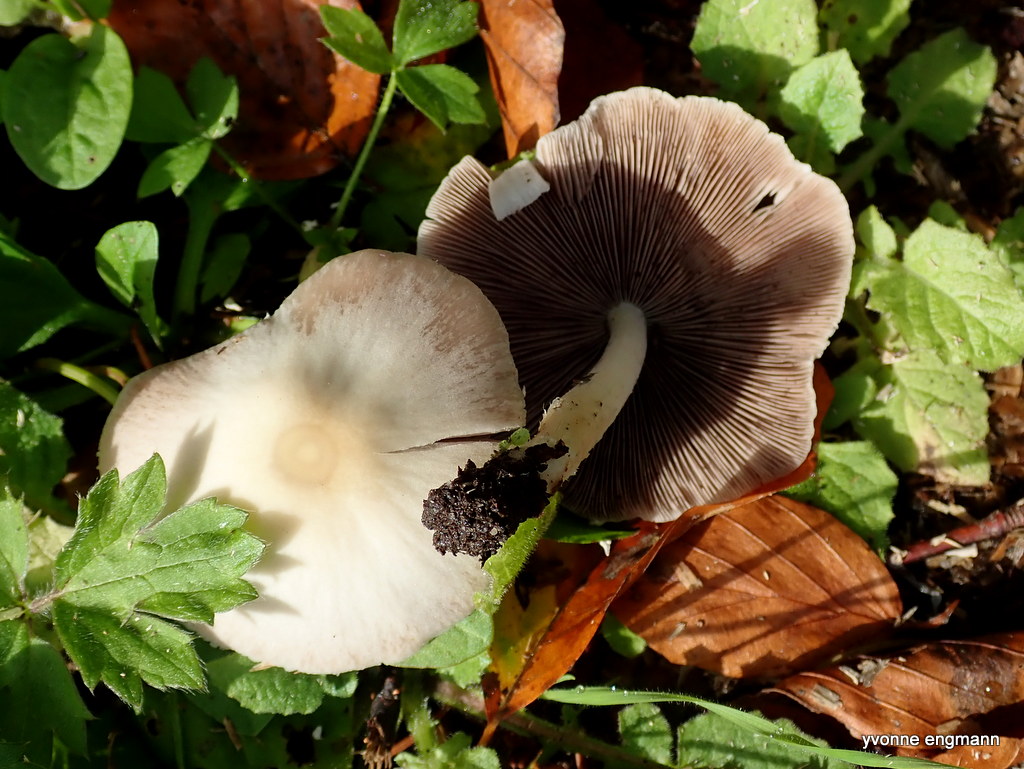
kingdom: Fungi
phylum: Basidiomycota
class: Agaricomycetes
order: Agaricales
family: Psathyrellaceae
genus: Candolleomyces
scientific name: Candolleomyces candolleanus
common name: Candolles mørkhat
